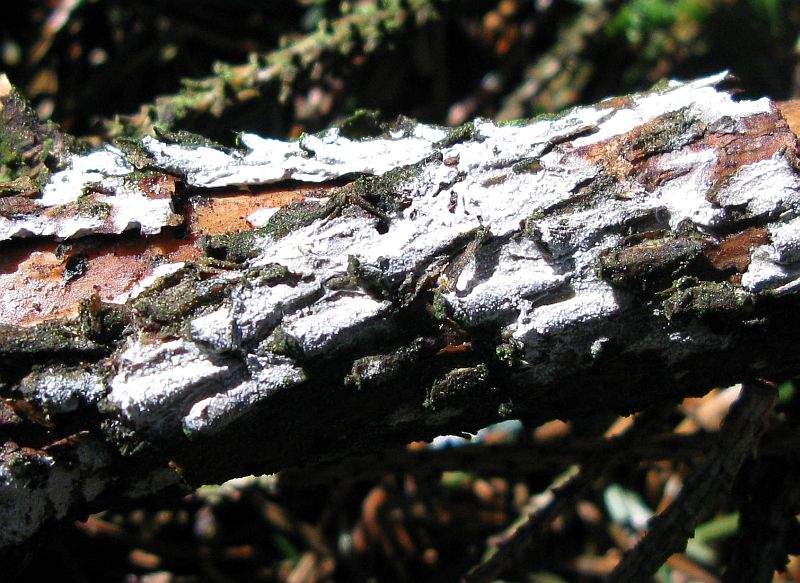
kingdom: Fungi
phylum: Basidiomycota
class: Agaricomycetes
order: Corticiales
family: Corticiaceae
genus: Lyomyces
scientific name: Lyomyces crustosus
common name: vortet hyldehinde
